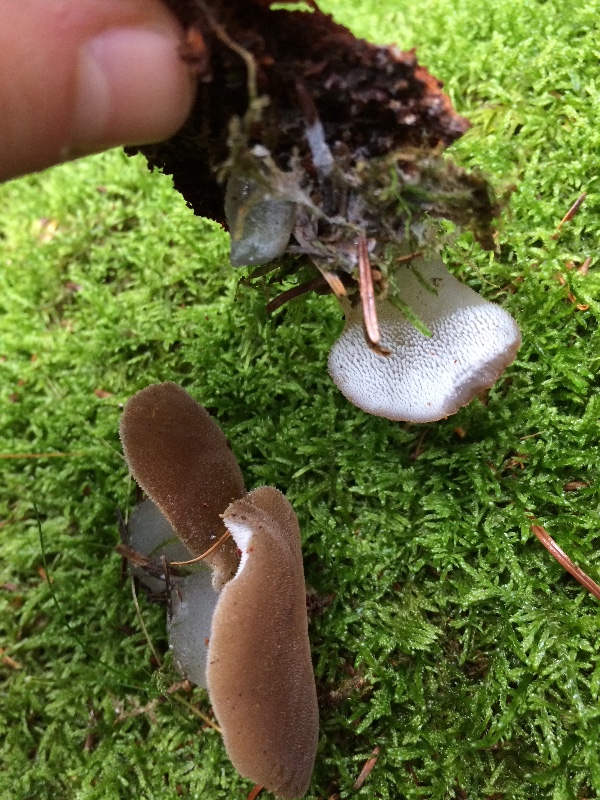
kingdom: Fungi
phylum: Basidiomycota
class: Agaricomycetes
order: Auriculariales
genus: Pseudohydnum
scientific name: Pseudohydnum gelatinosum
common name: bævretand
